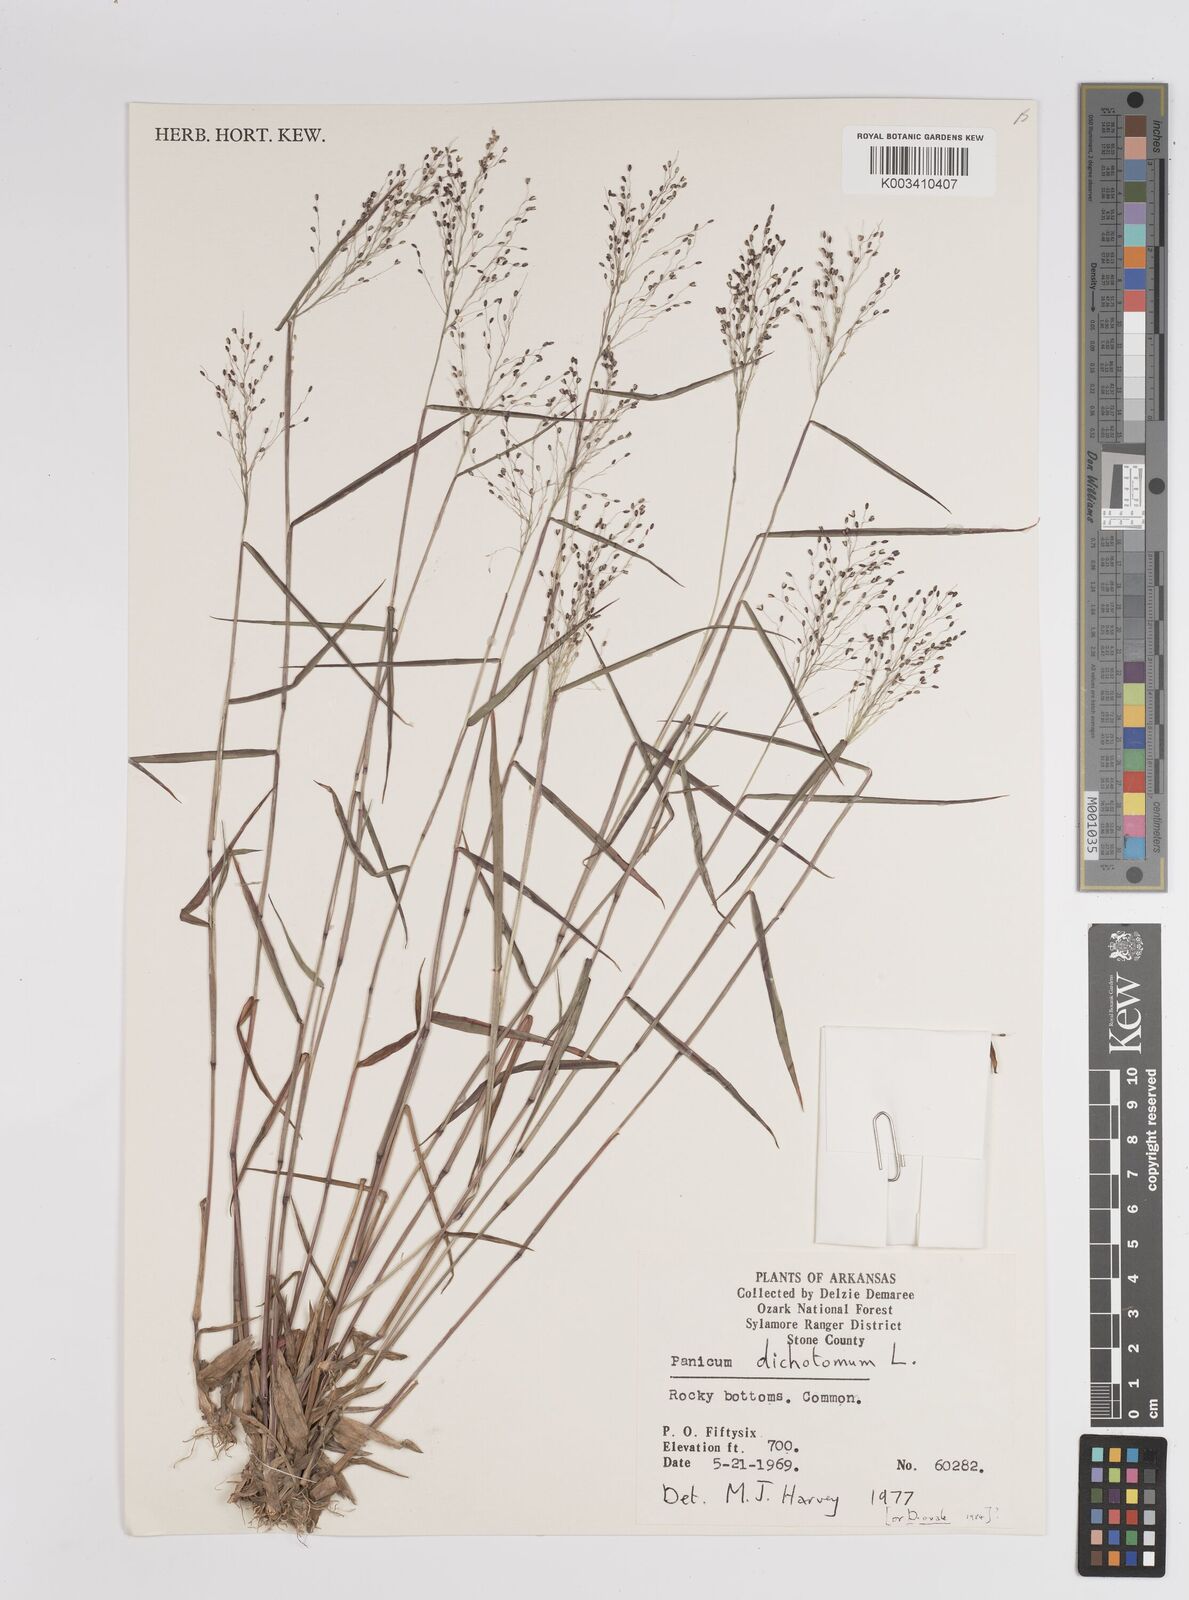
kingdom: Plantae
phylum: Tracheophyta
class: Liliopsida
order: Poales
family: Poaceae
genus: Dichanthelium
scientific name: Dichanthelium dichotomum
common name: Cypress panicgrass
